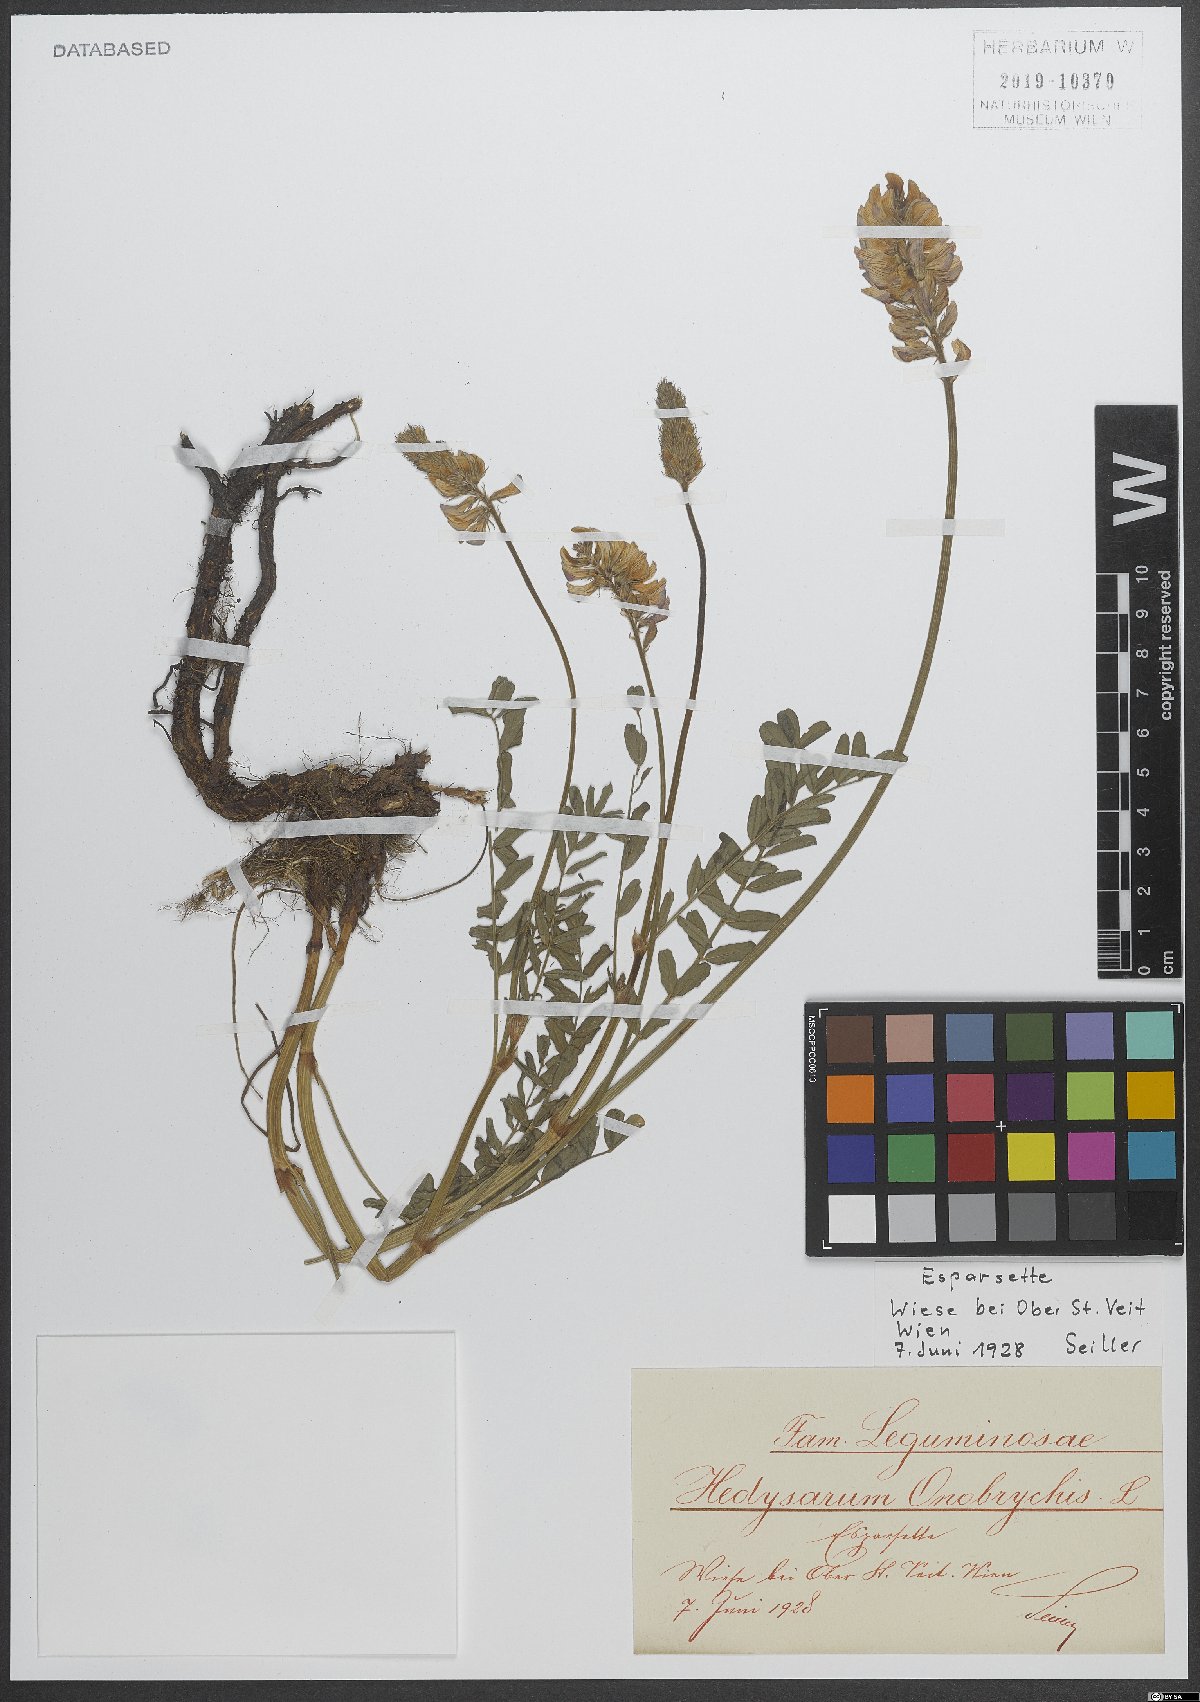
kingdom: Plantae
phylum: Tracheophyta
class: Magnoliopsida
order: Fabales
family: Fabaceae
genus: Onobrychis
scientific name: Onobrychis viciifolia
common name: Sainfoin
